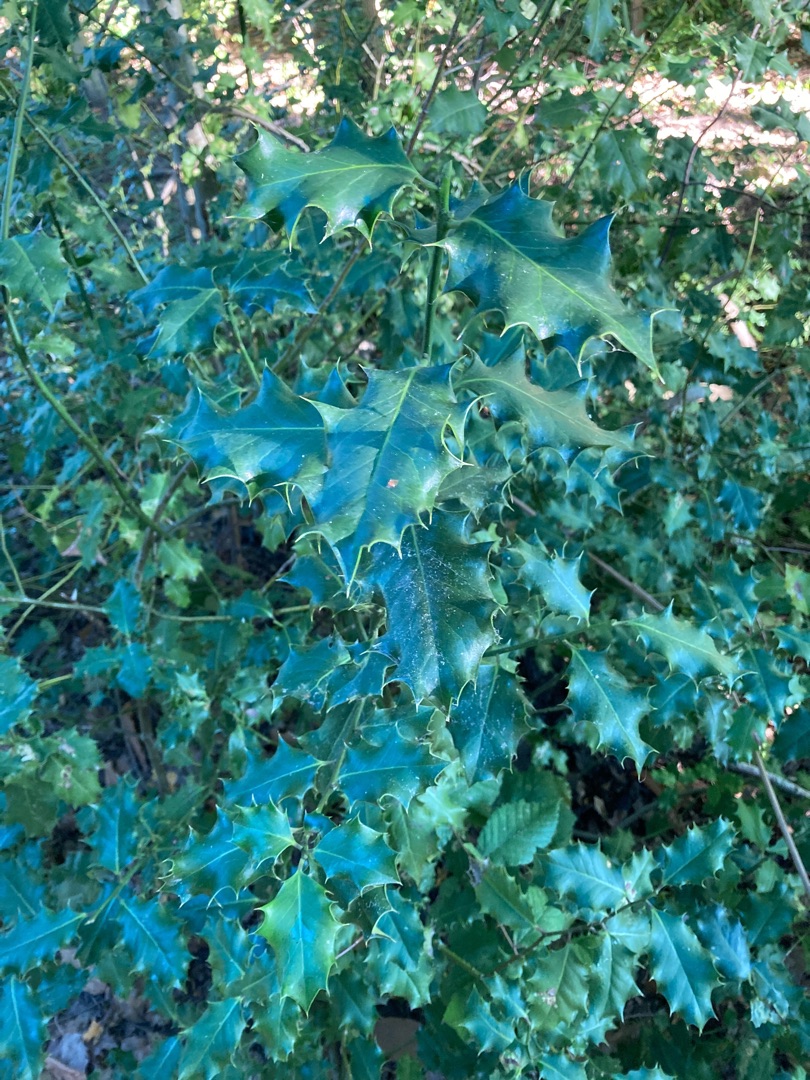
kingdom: Plantae
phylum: Tracheophyta
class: Magnoliopsida
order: Aquifoliales
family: Aquifoliaceae
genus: Ilex
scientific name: Ilex aquifolium
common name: Kristtorn
